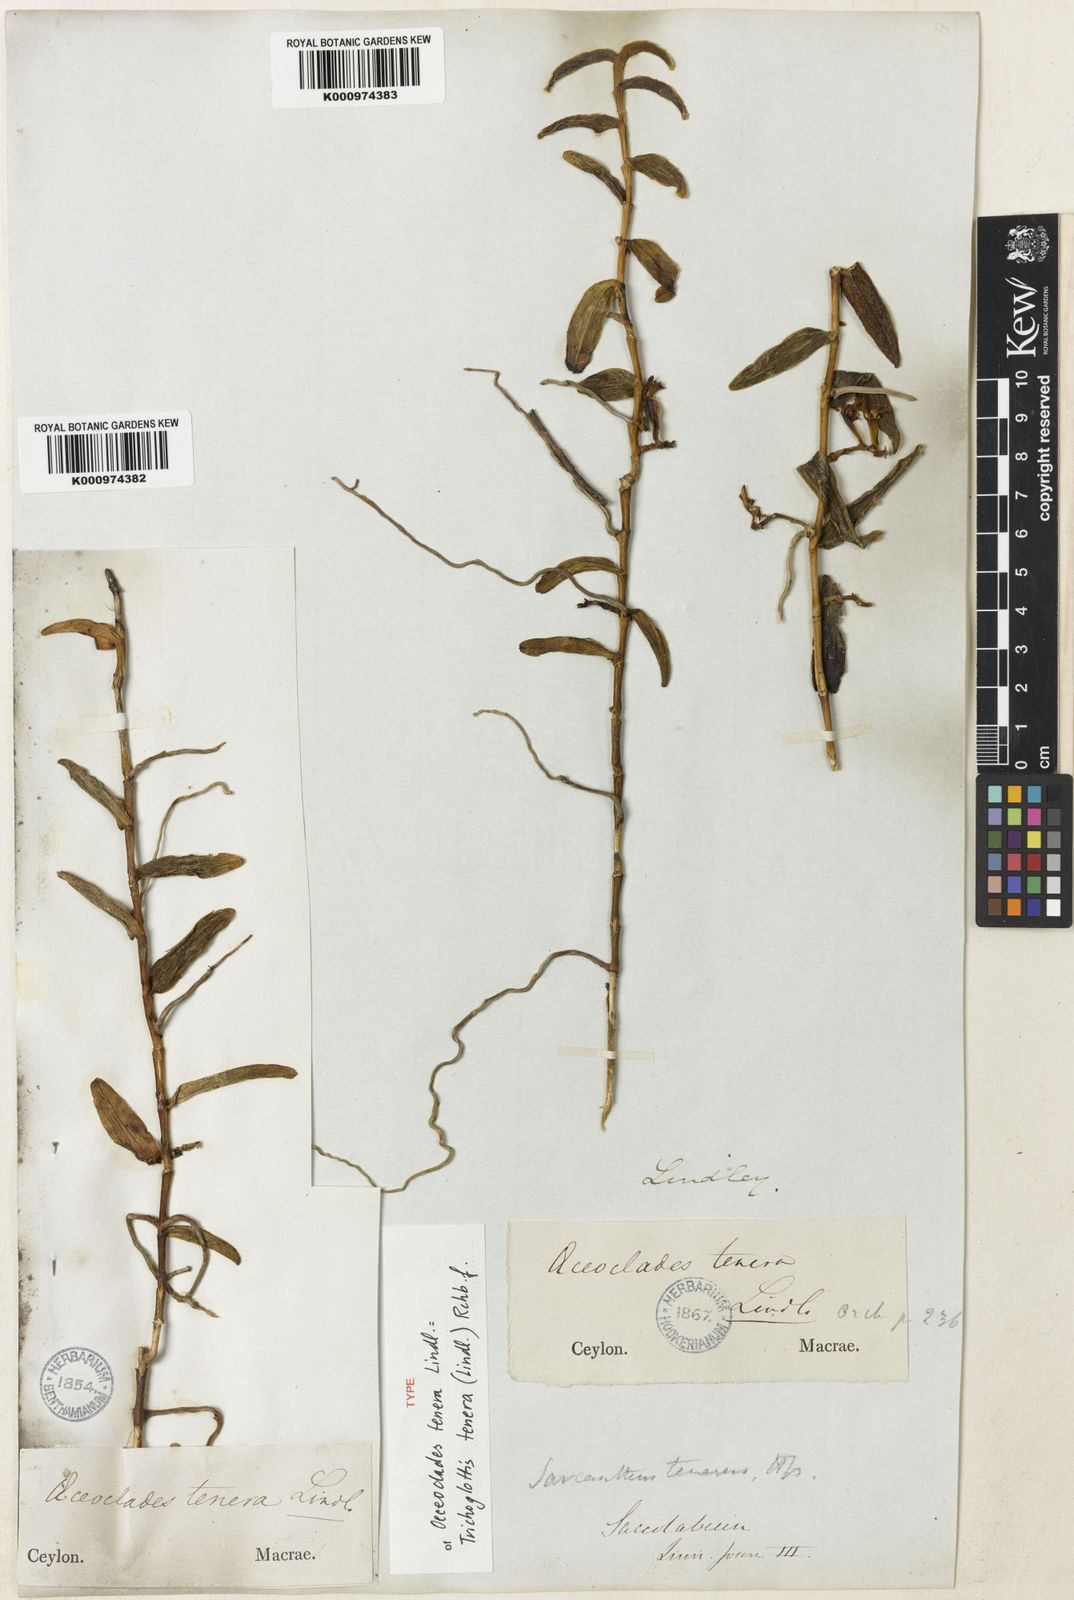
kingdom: Plantae
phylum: Tracheophyta
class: Liliopsida
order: Asparagales
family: Orchidaceae
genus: Trichoglottis
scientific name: Trichoglottis tenera
